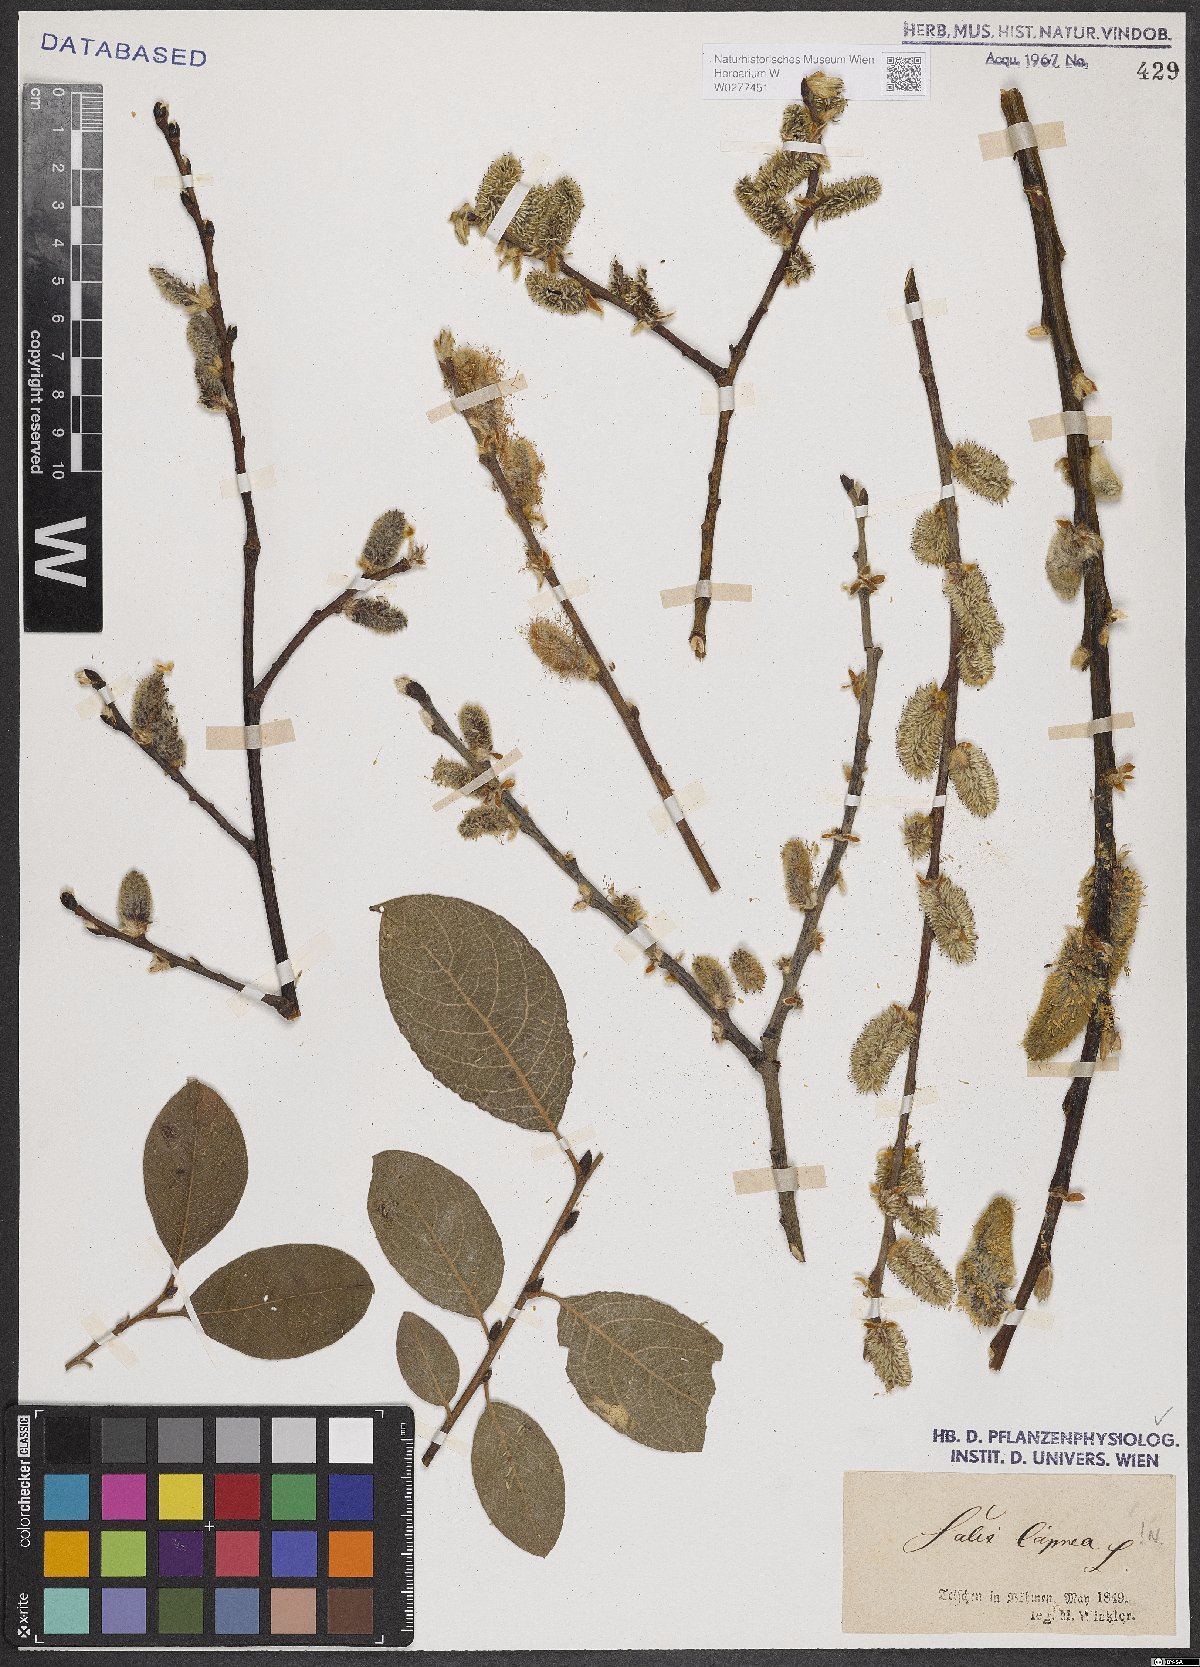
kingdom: Plantae
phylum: Tracheophyta
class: Magnoliopsida
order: Malpighiales
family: Salicaceae
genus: Salix
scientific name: Salix caprea
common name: Goat willow
